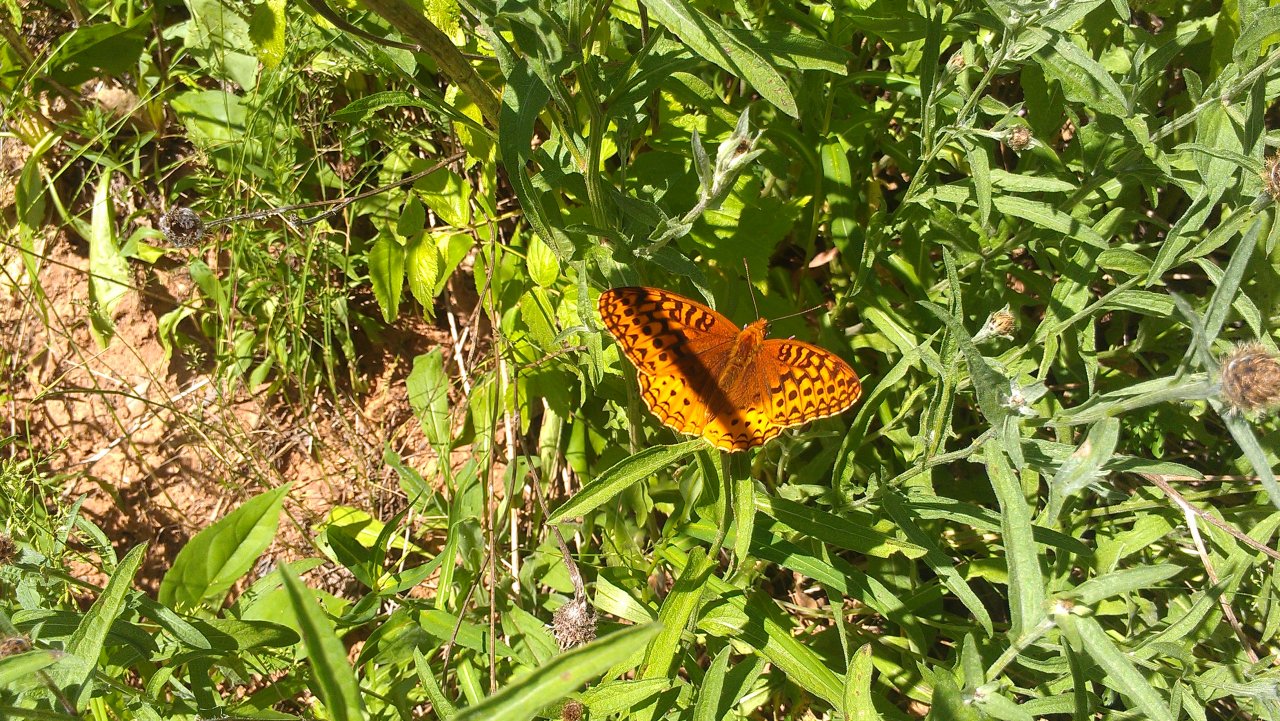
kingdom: Animalia
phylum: Arthropoda
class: Insecta
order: Lepidoptera
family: Nymphalidae
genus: Speyeria
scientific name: Speyeria cybele
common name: Great Spangled Fritillary
